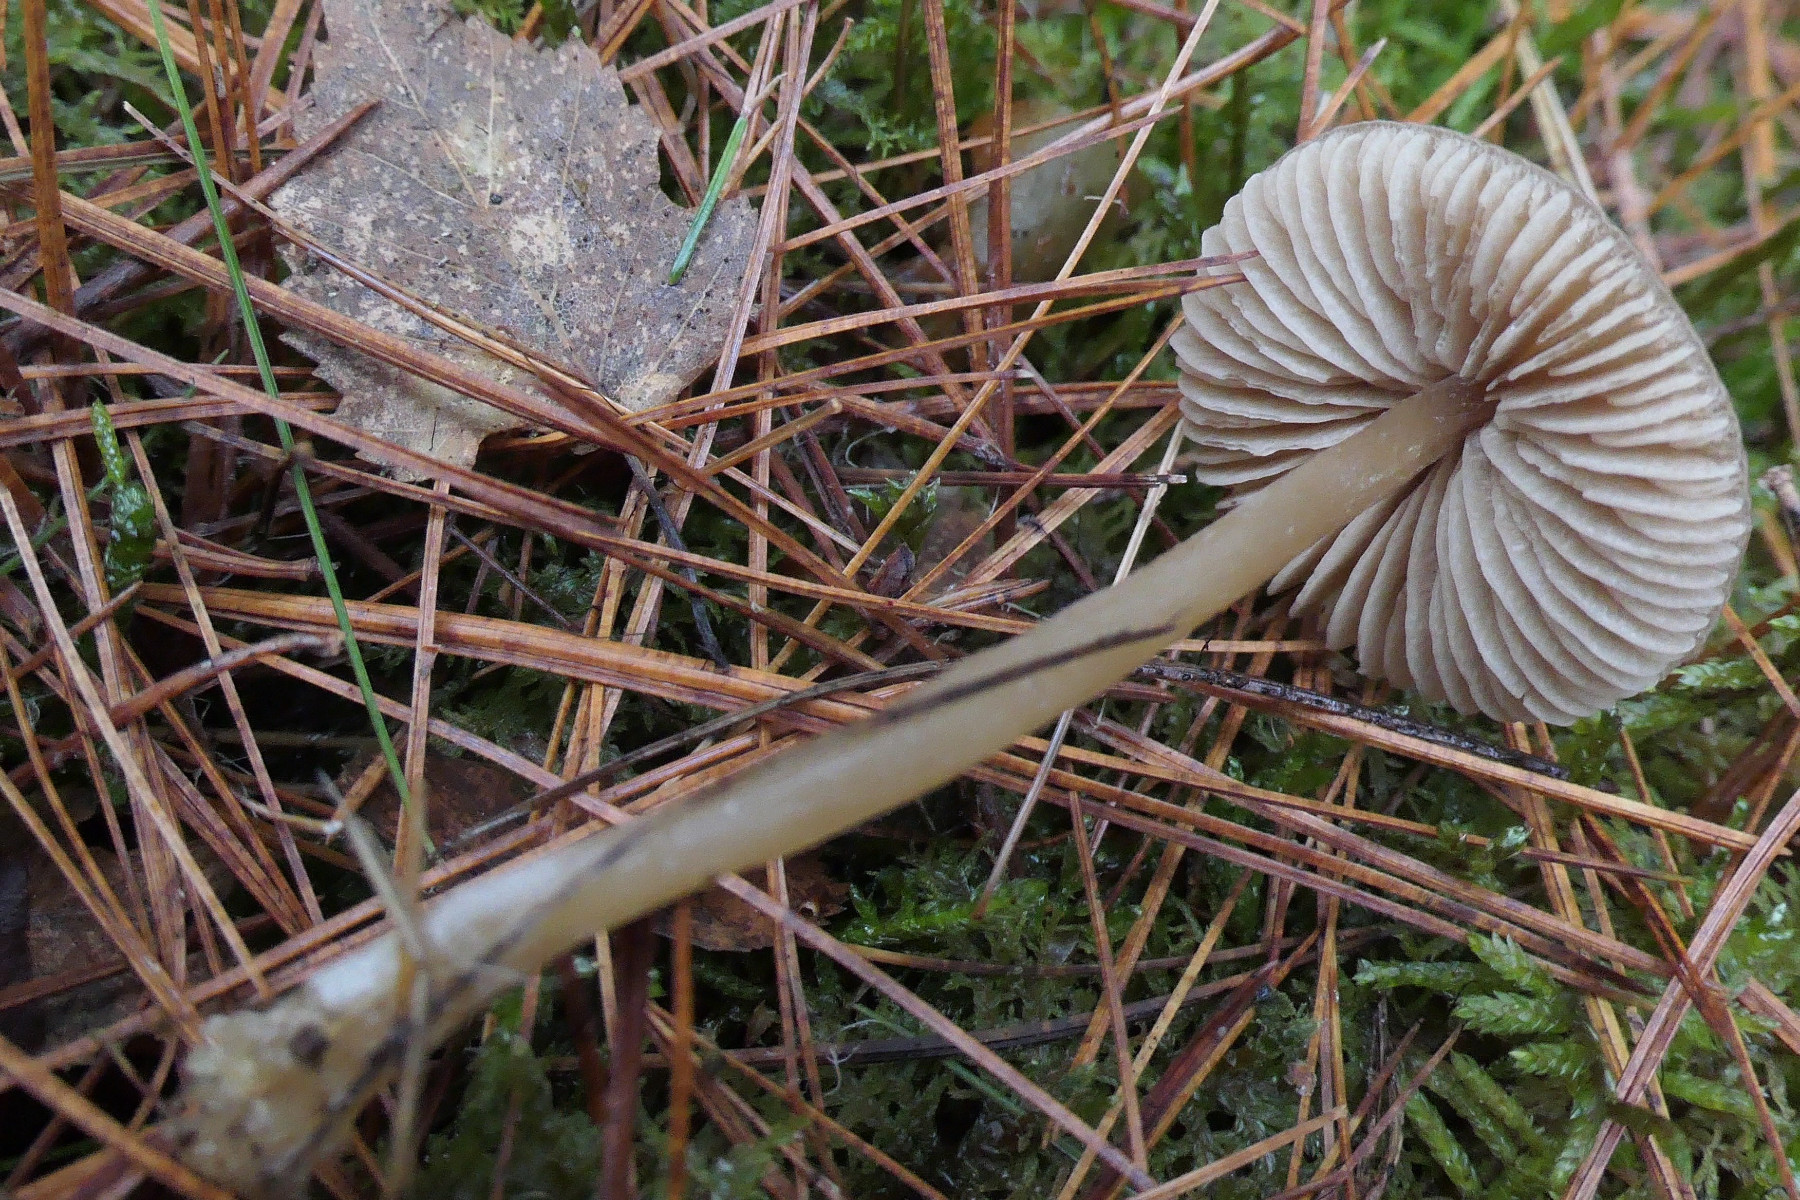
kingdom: Fungi
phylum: Basidiomycota
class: Agaricomycetes
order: Agaricales
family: Entolomataceae
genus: Entoloma
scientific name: Entoloma cetratum
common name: voks-rødblad
